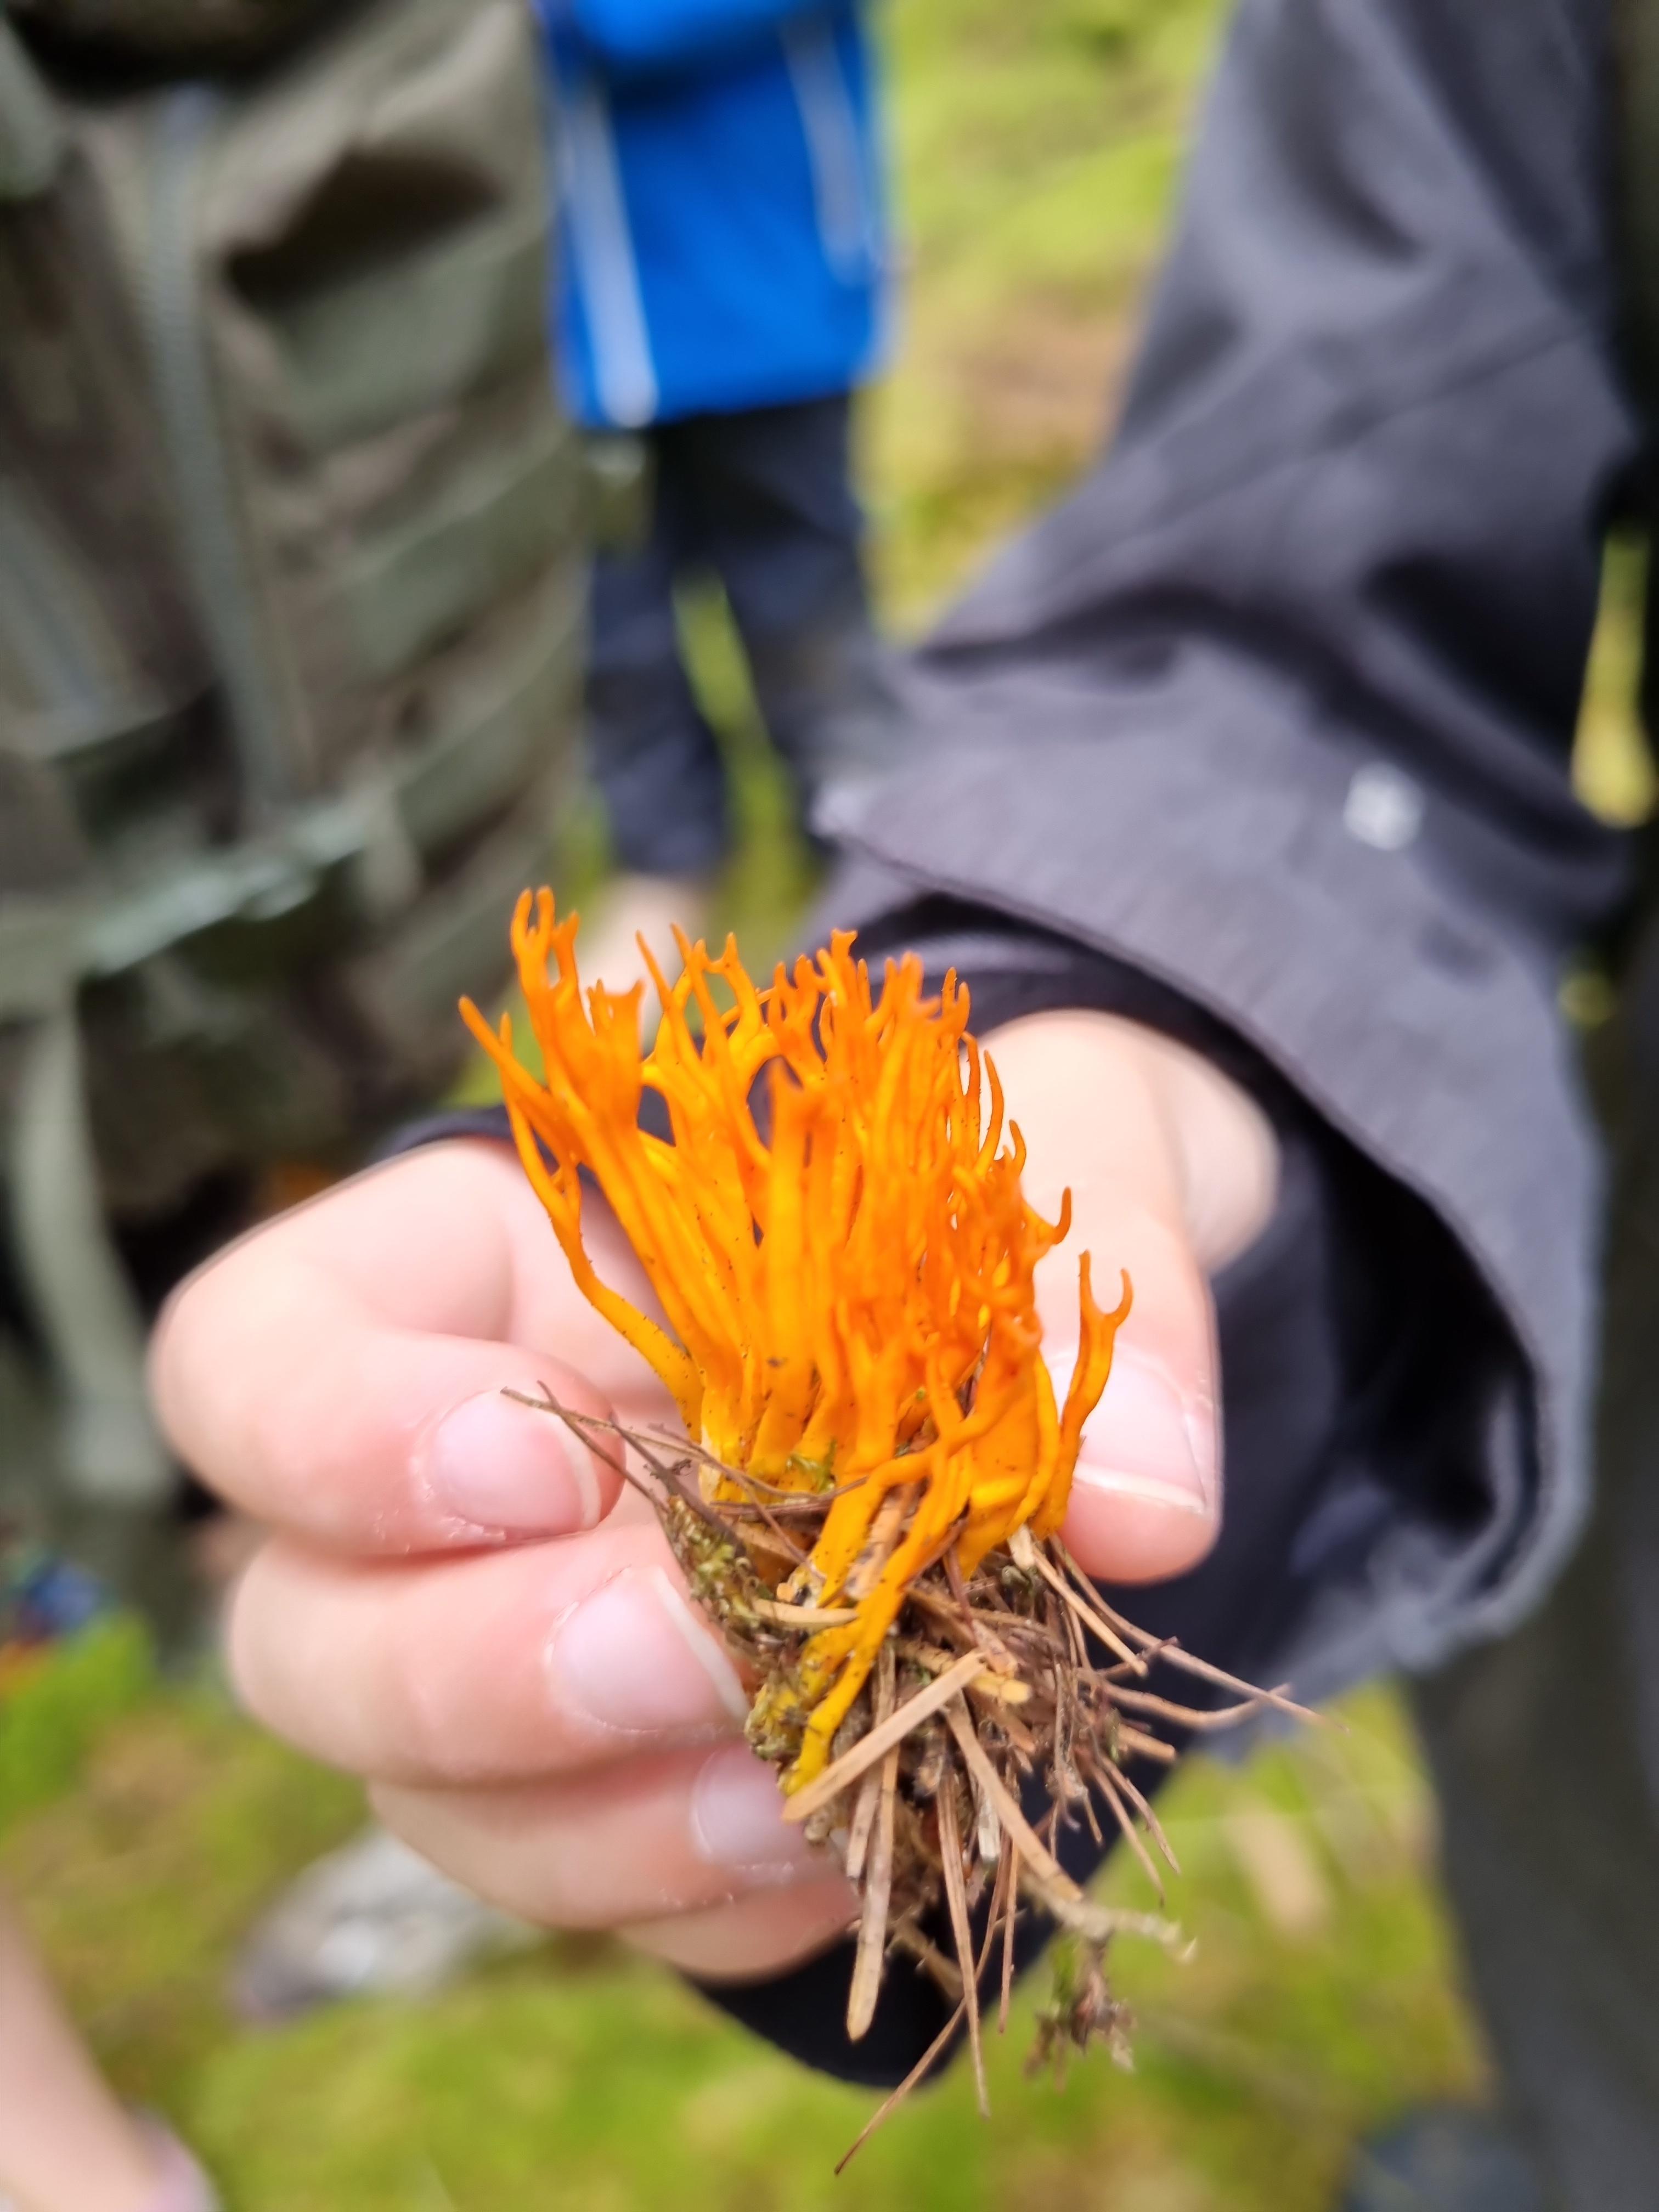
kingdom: Fungi
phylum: Basidiomycota
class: Dacrymycetes
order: Dacrymycetales
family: Dacrymycetaceae
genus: Calocera
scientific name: Calocera viscosa
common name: almindelig guldgaffel
